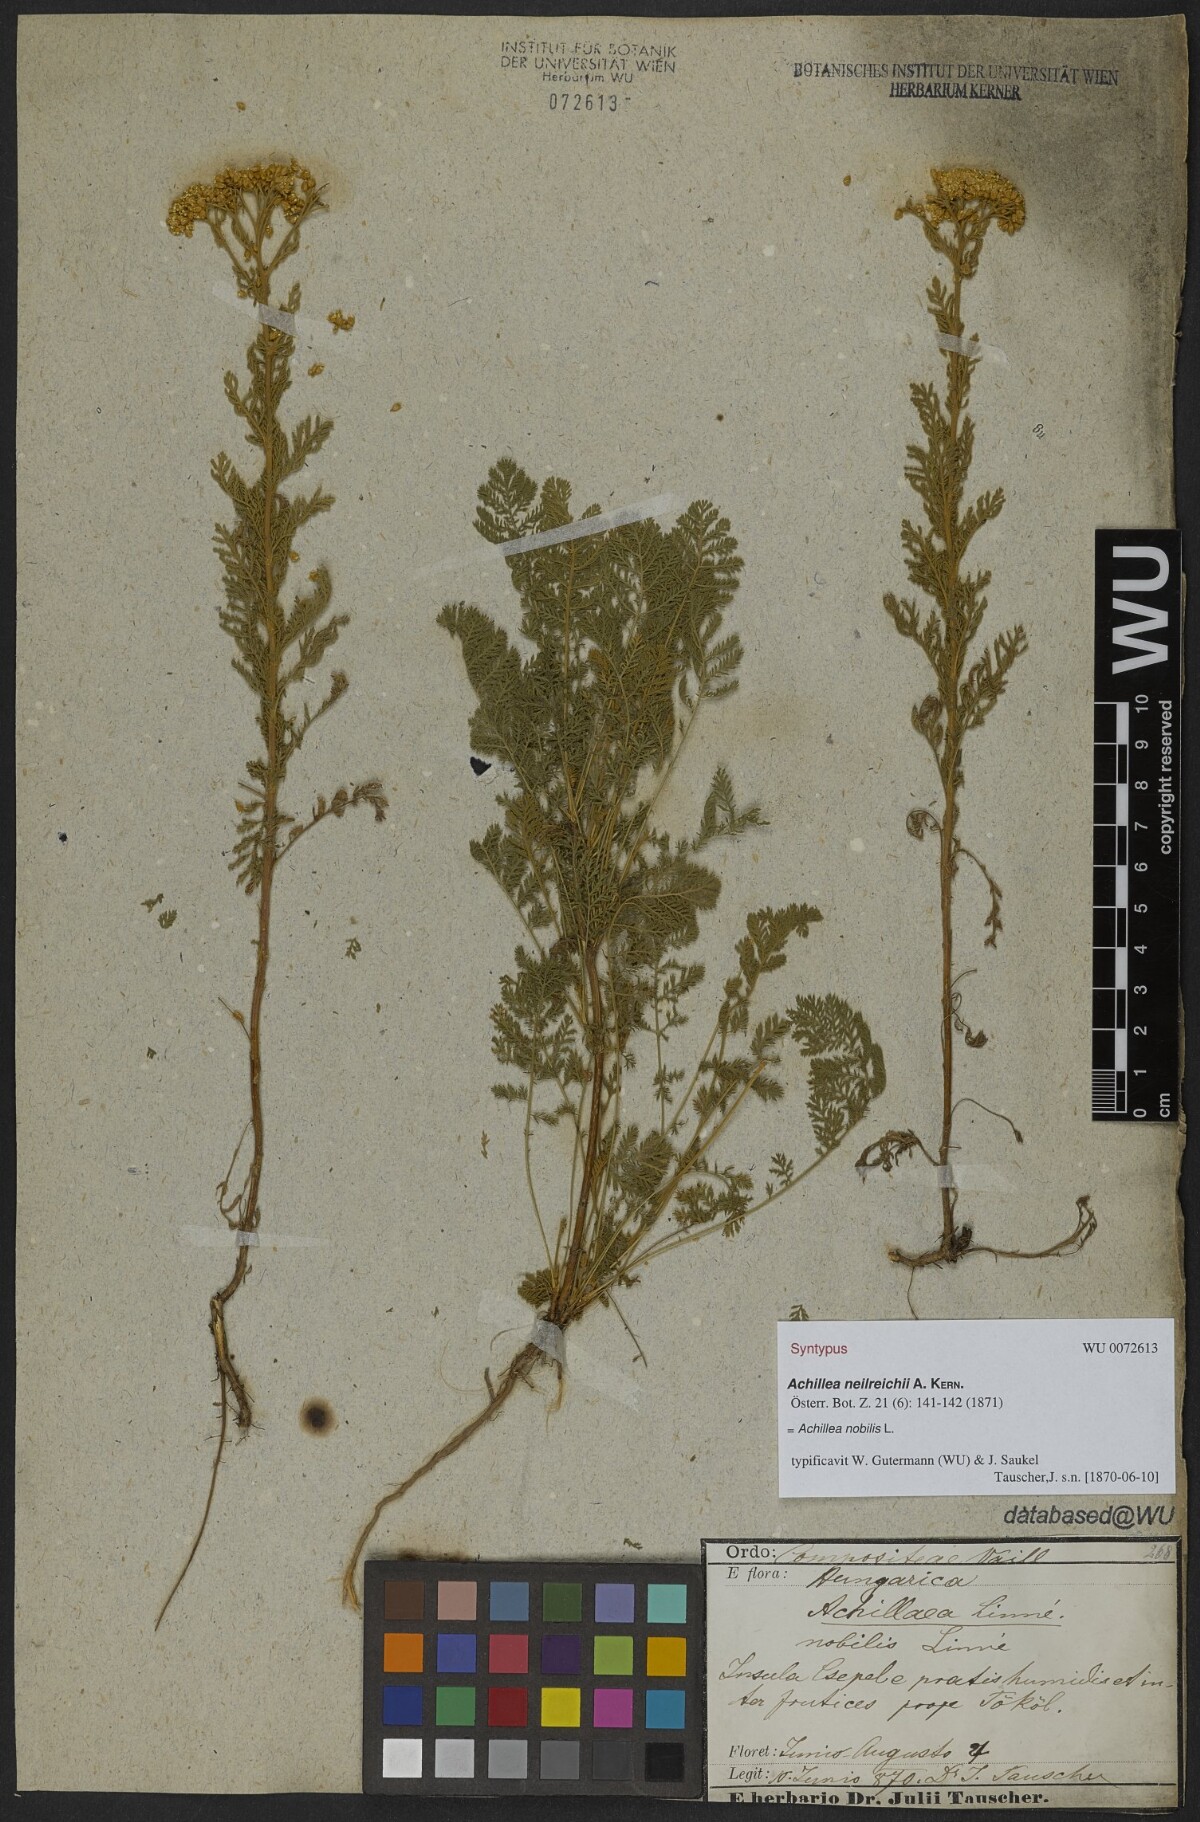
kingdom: Plantae
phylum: Tracheophyta
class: Magnoliopsida
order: Asterales
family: Asteraceae
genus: Achillea
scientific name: Achillea nobilis
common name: Noble yarrow
